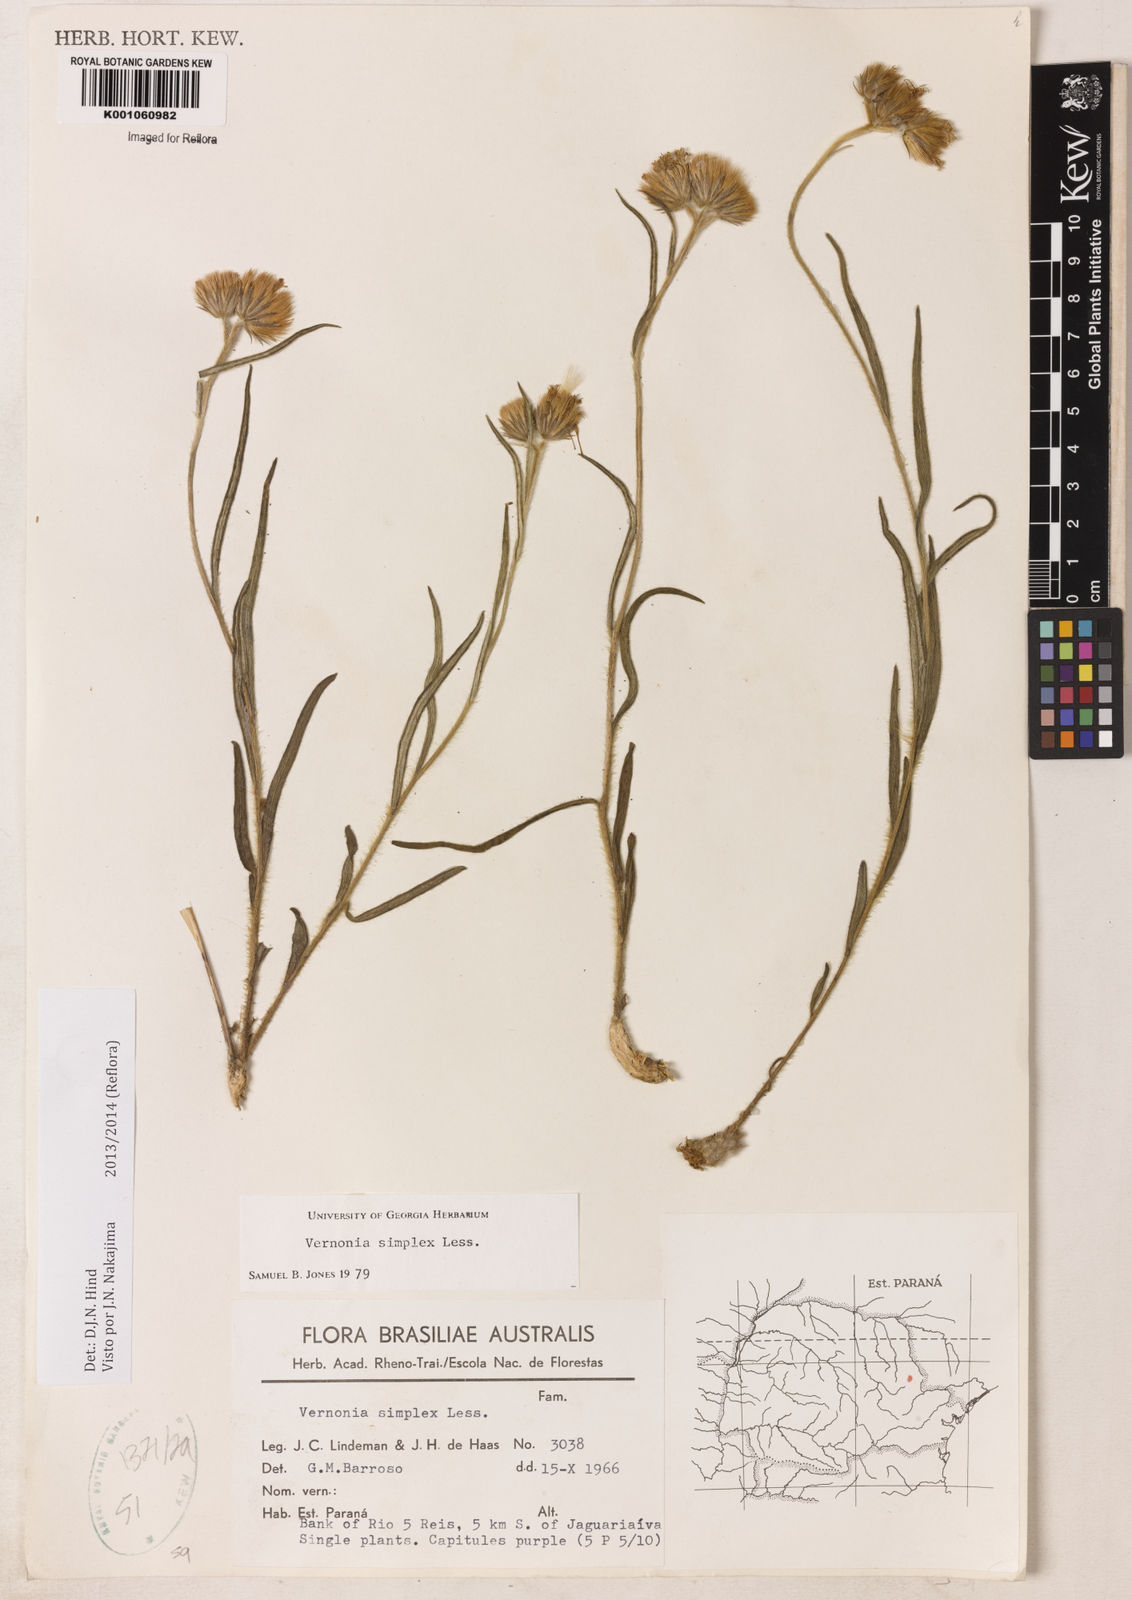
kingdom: Plantae
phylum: Tracheophyta
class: Magnoliopsida
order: Asterales
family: Asteraceae
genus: Chrysolaena
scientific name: Chrysolaena simplex
